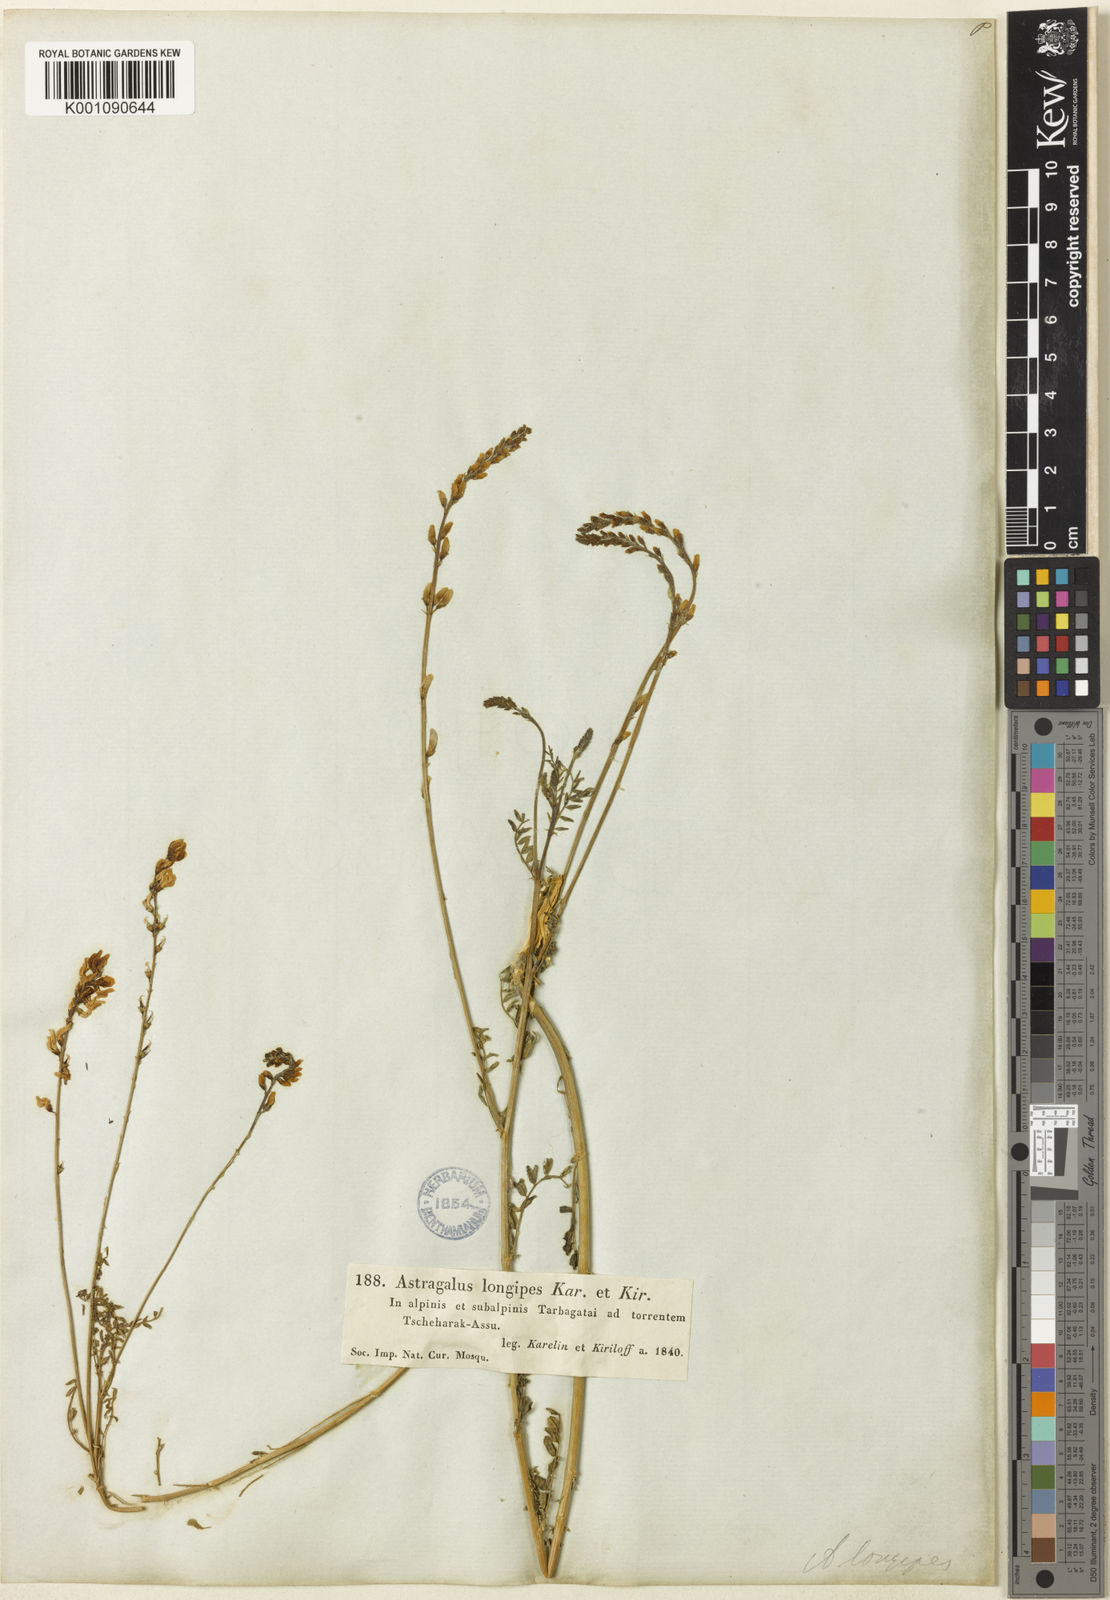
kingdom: Plantae
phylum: Tracheophyta
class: Magnoliopsida
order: Fabales
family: Fabaceae
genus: Astragalus
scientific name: Astragalus
